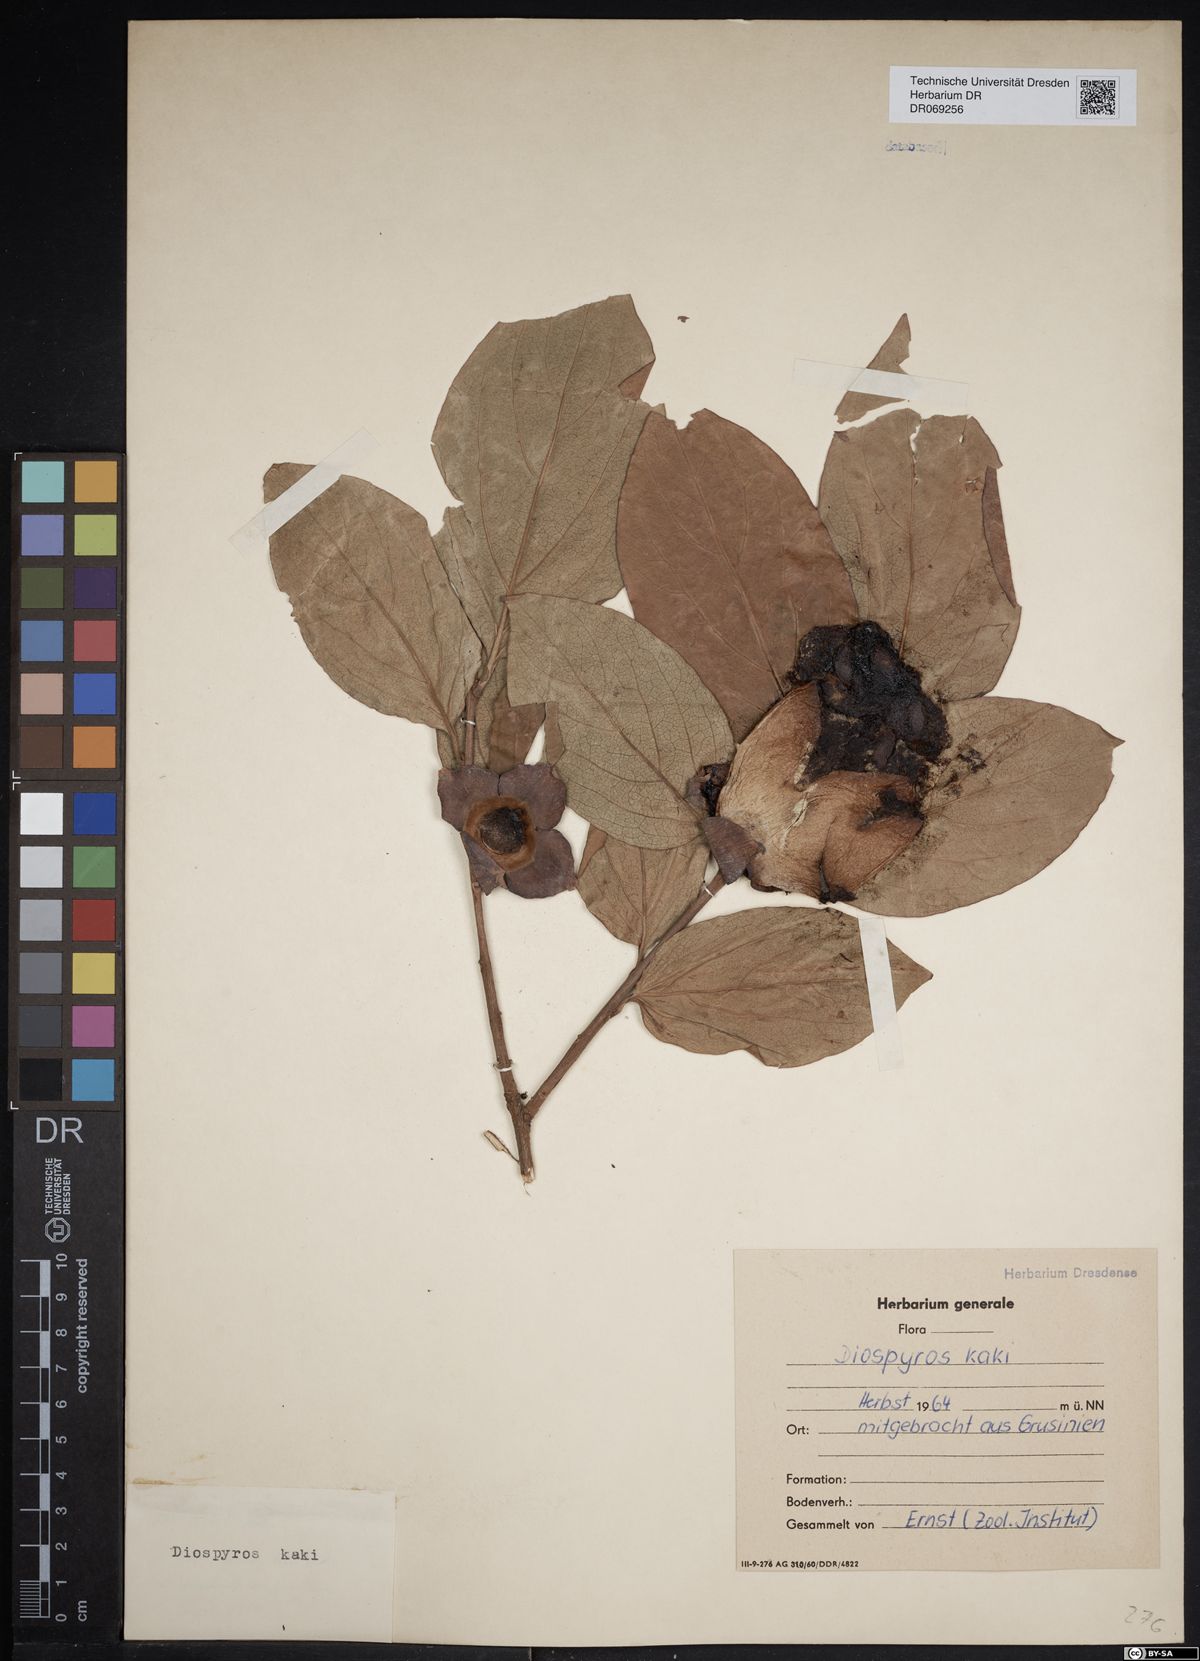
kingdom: Plantae
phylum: Tracheophyta
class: Magnoliopsida
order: Ericales
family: Ebenaceae
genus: Diospyros
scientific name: Diospyros kaki
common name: Persimmon
